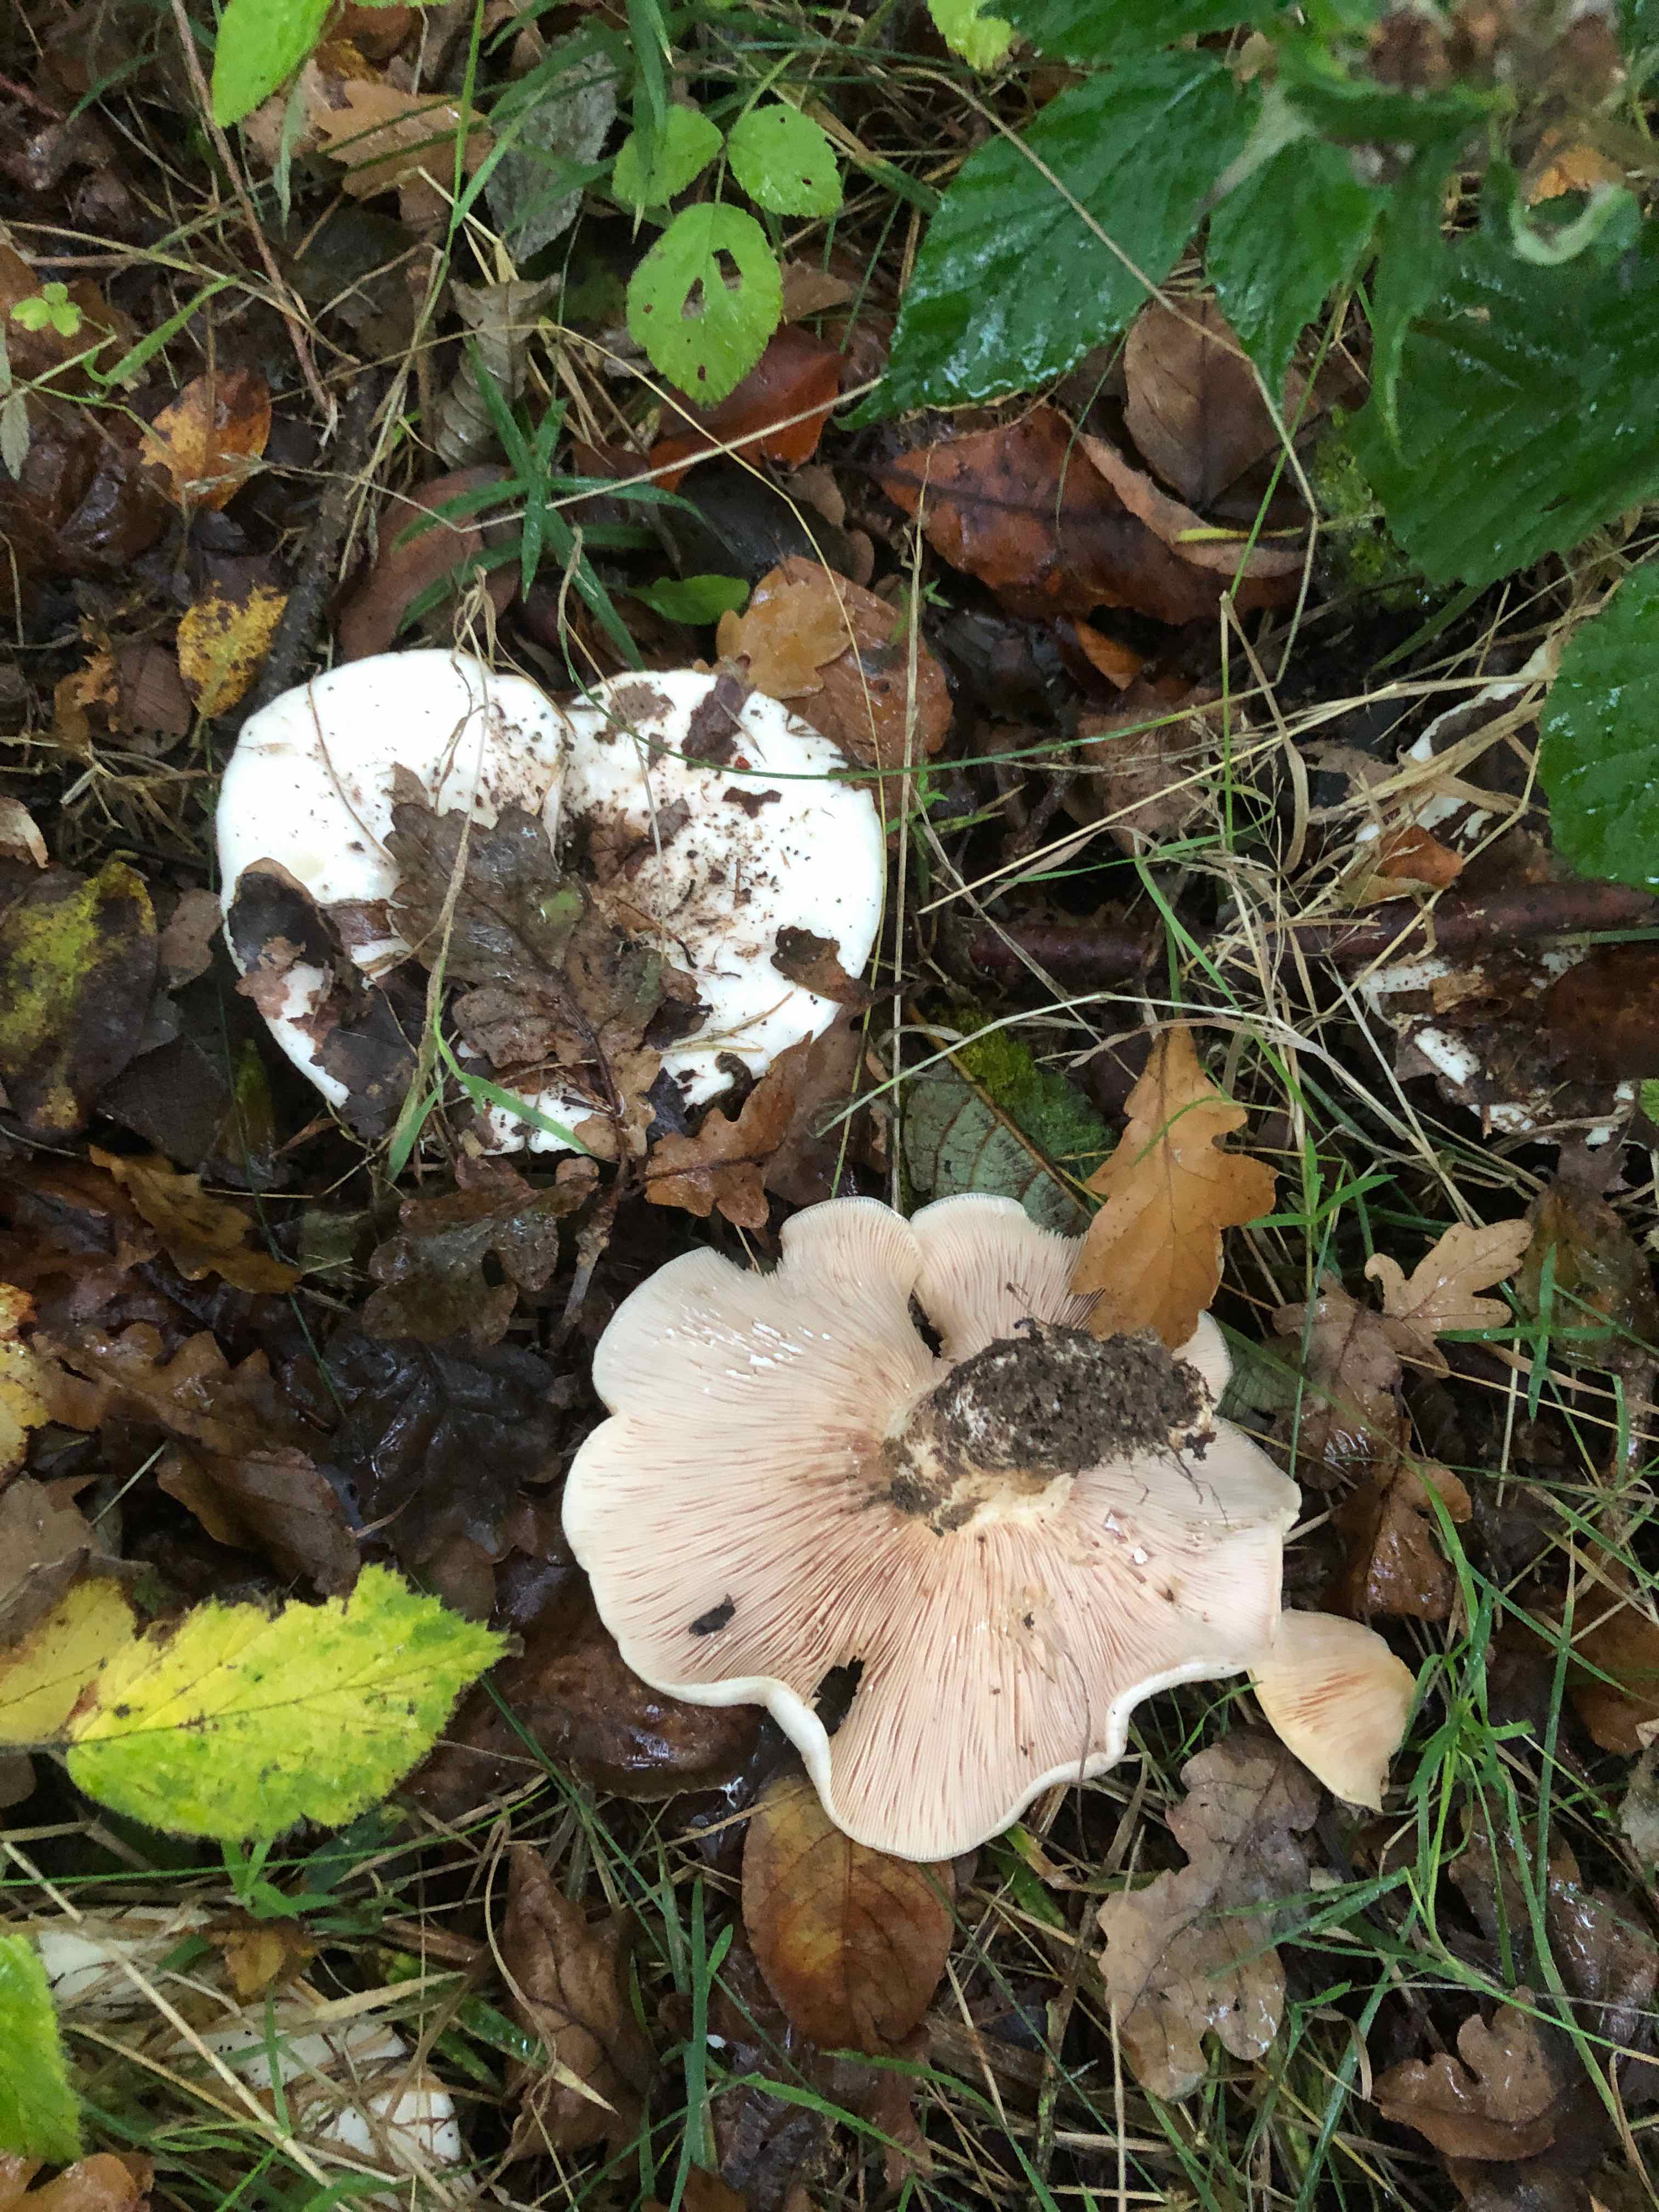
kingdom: Fungi
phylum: Basidiomycota
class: Agaricomycetes
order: Russulales
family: Russulaceae
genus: Lactarius
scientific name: Lactarius controversus
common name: rosabladet mælkehat
